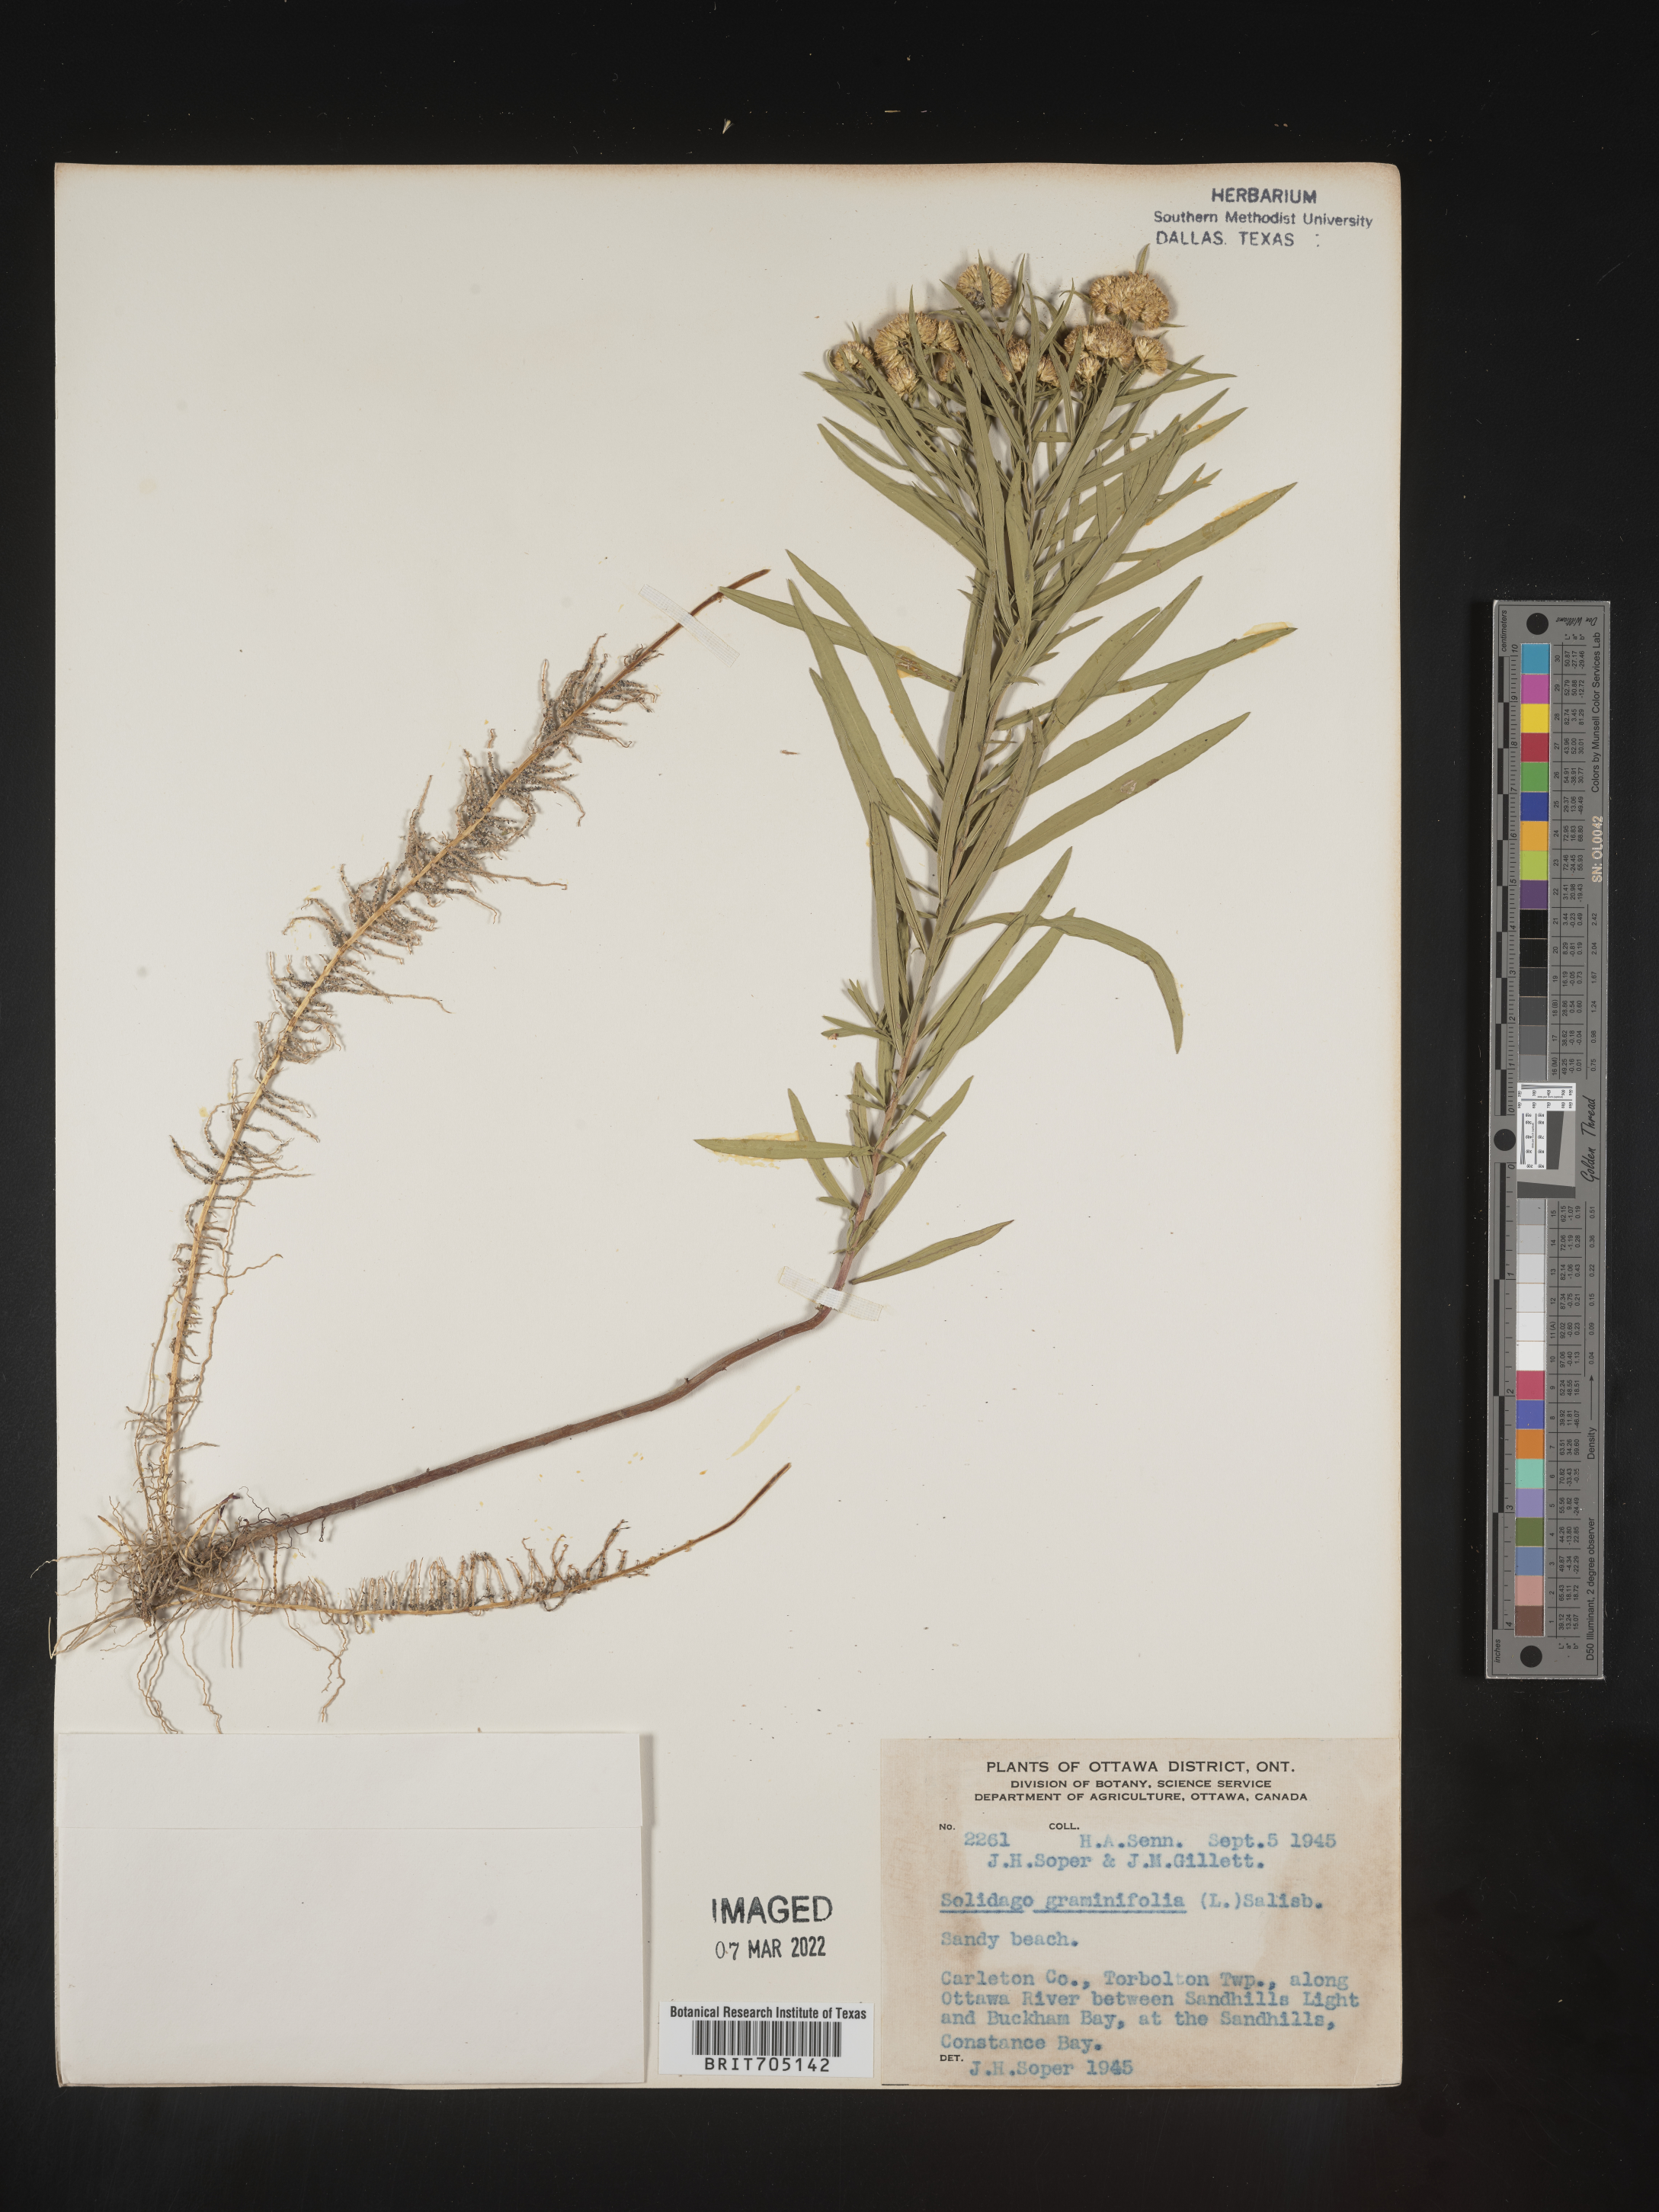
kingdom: Plantae
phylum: Tracheophyta
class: Magnoliopsida
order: Asterales
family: Asteraceae
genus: Euthamia
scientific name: Euthamia graminifolia
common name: Common goldentop
